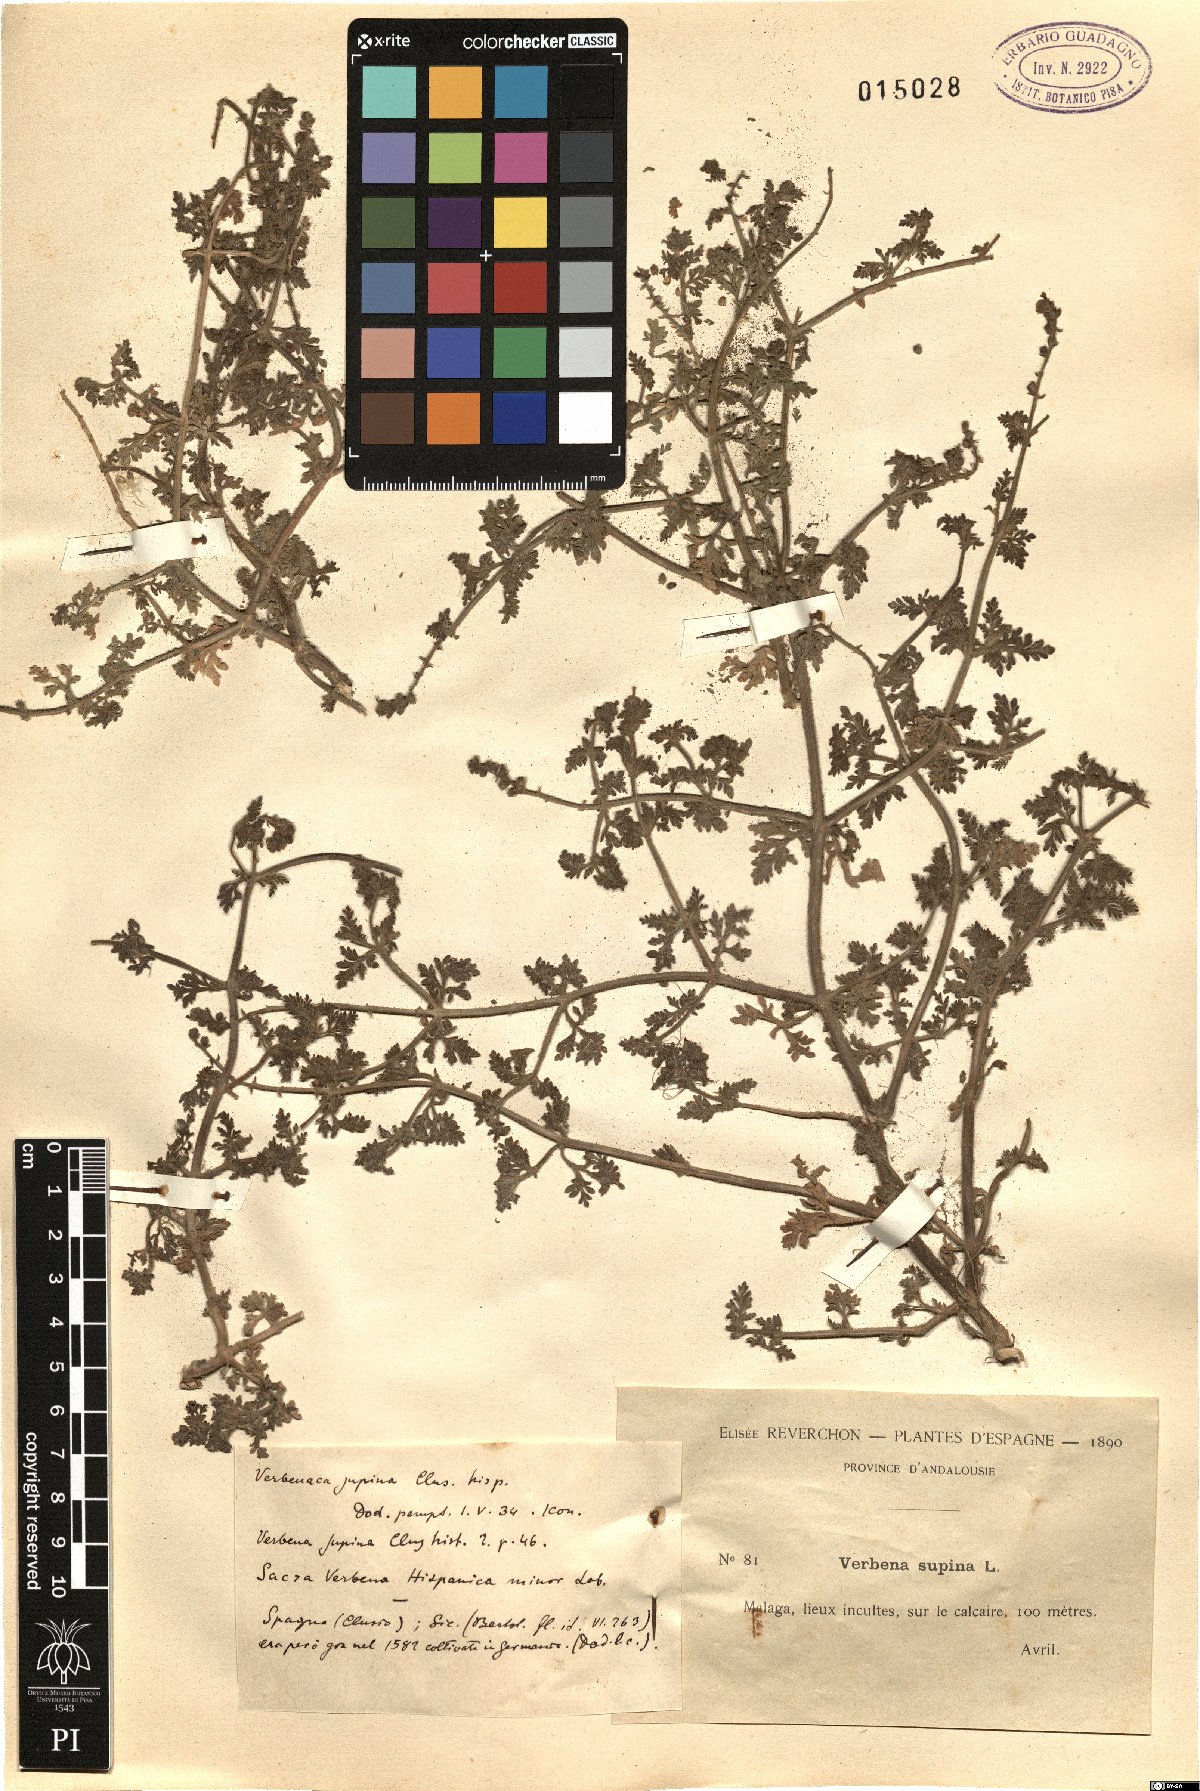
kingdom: Plantae
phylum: Tracheophyta
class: Magnoliopsida
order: Lamiales
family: Verbenaceae
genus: Verbena
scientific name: Verbena supina
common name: Trailing vervain
